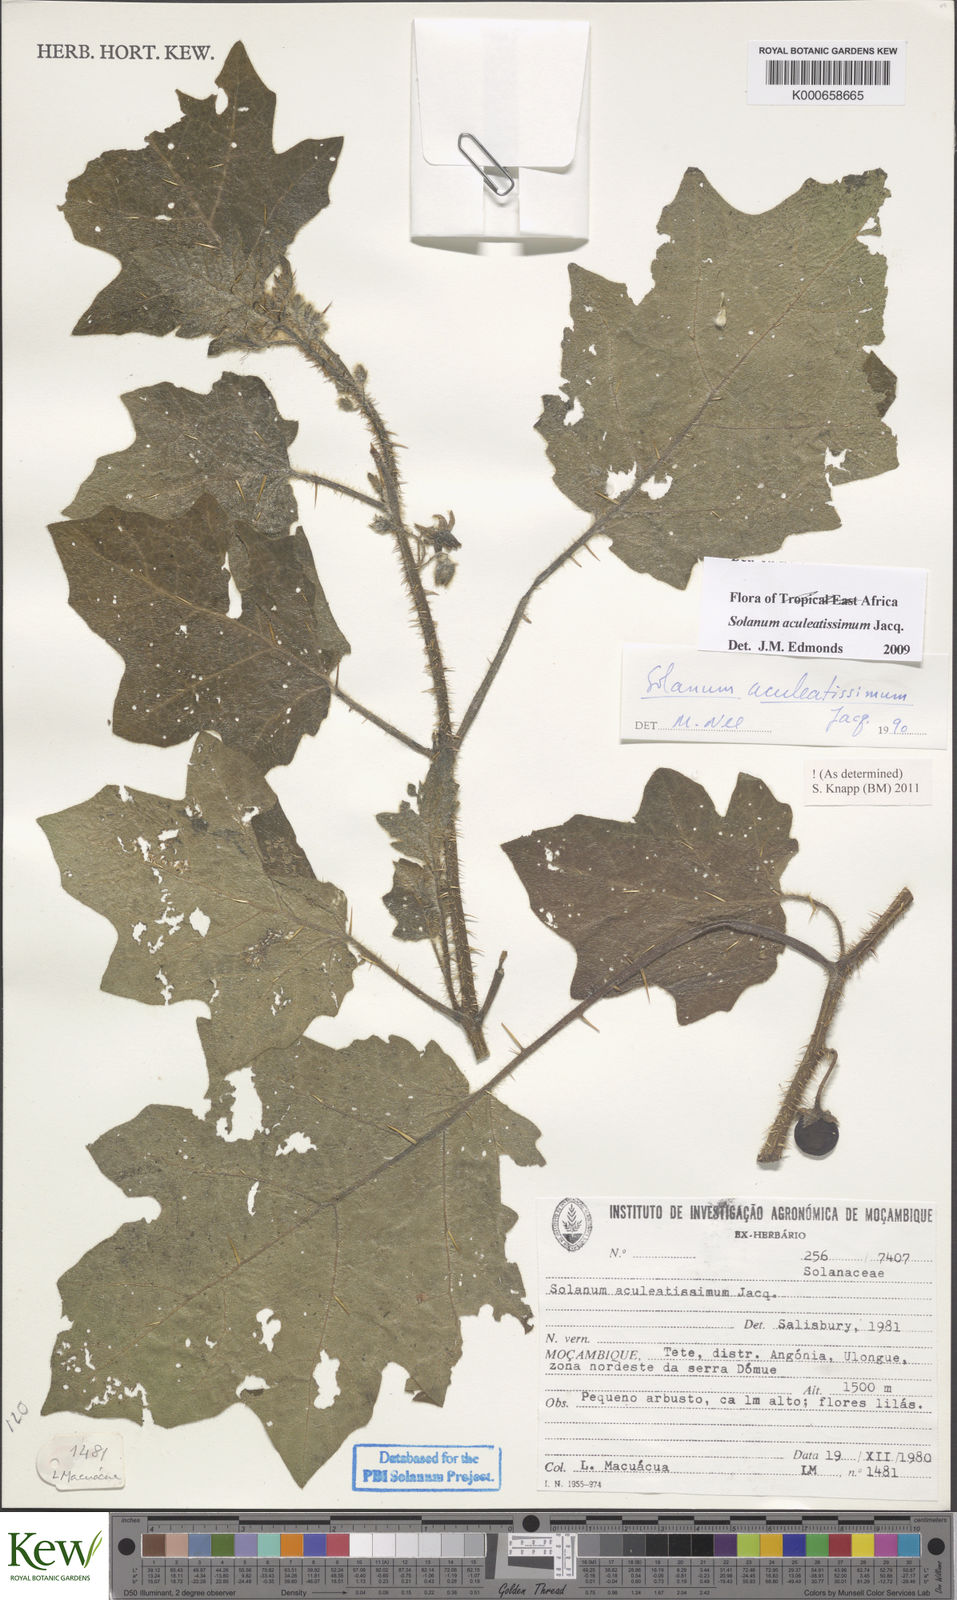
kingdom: Plantae
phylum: Tracheophyta
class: Magnoliopsida
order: Solanales
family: Solanaceae
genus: Solanum
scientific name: Solanum aculeatissimum
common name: Dutch eggplant
